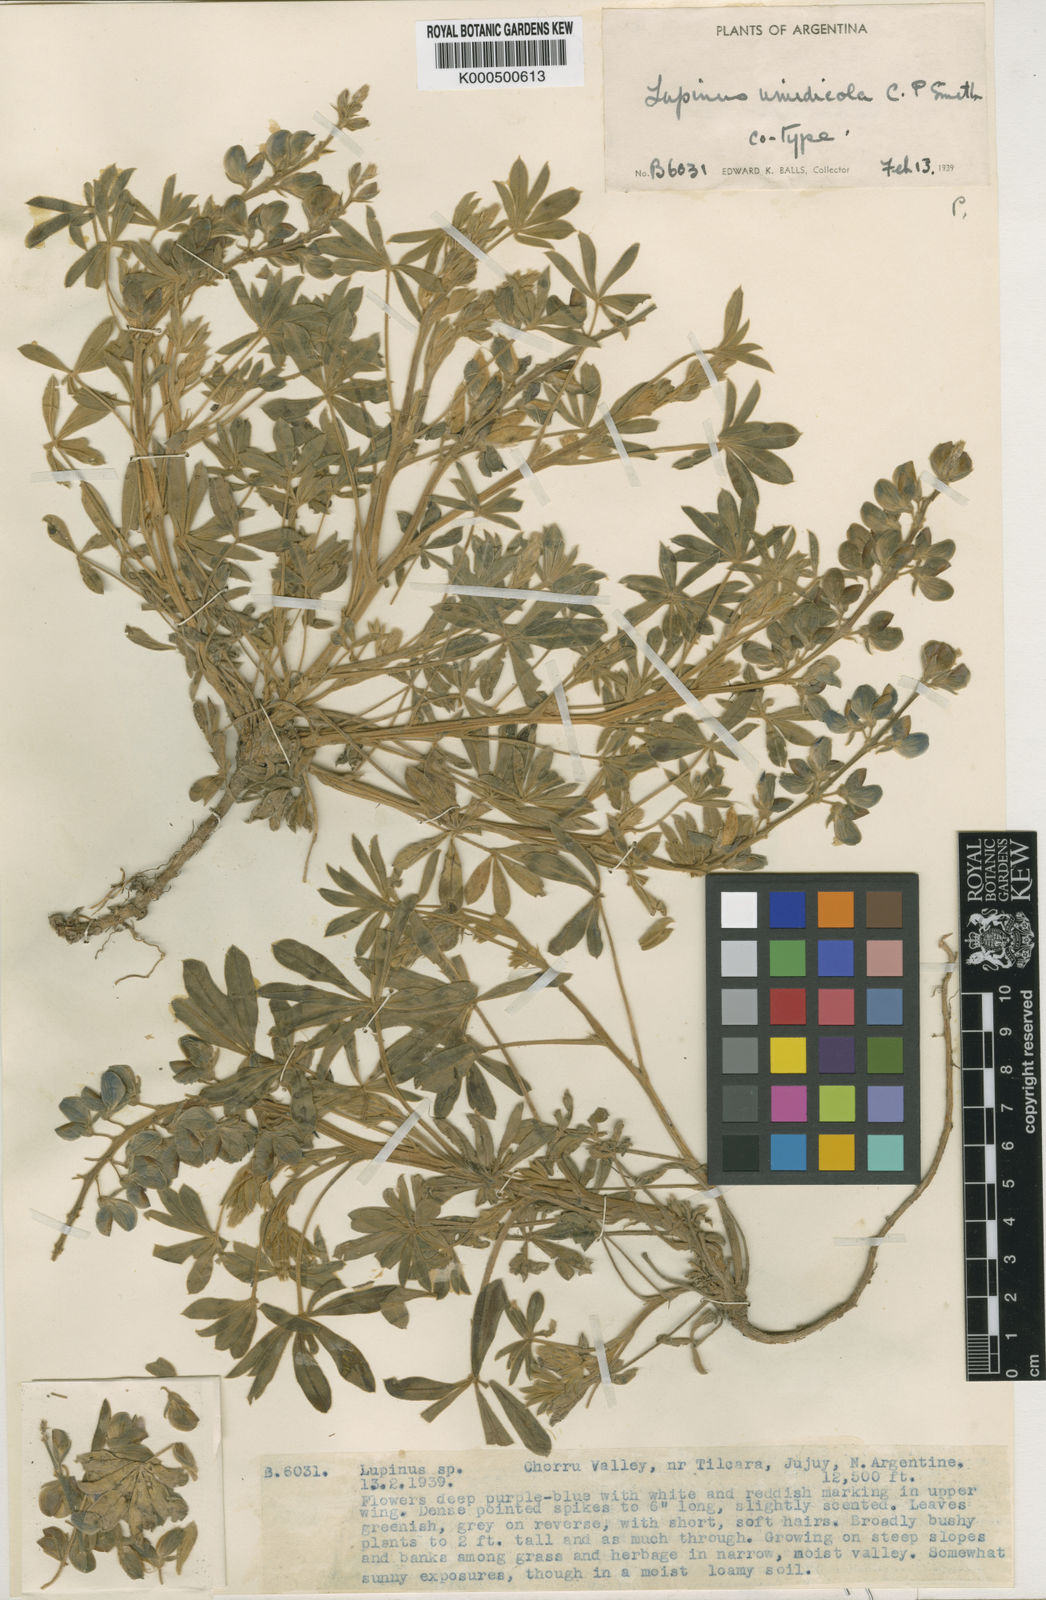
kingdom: Plantae
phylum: Tracheophyta
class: Magnoliopsida
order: Fabales
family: Fabaceae
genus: Lupinus
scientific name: Lupinus umidicola
